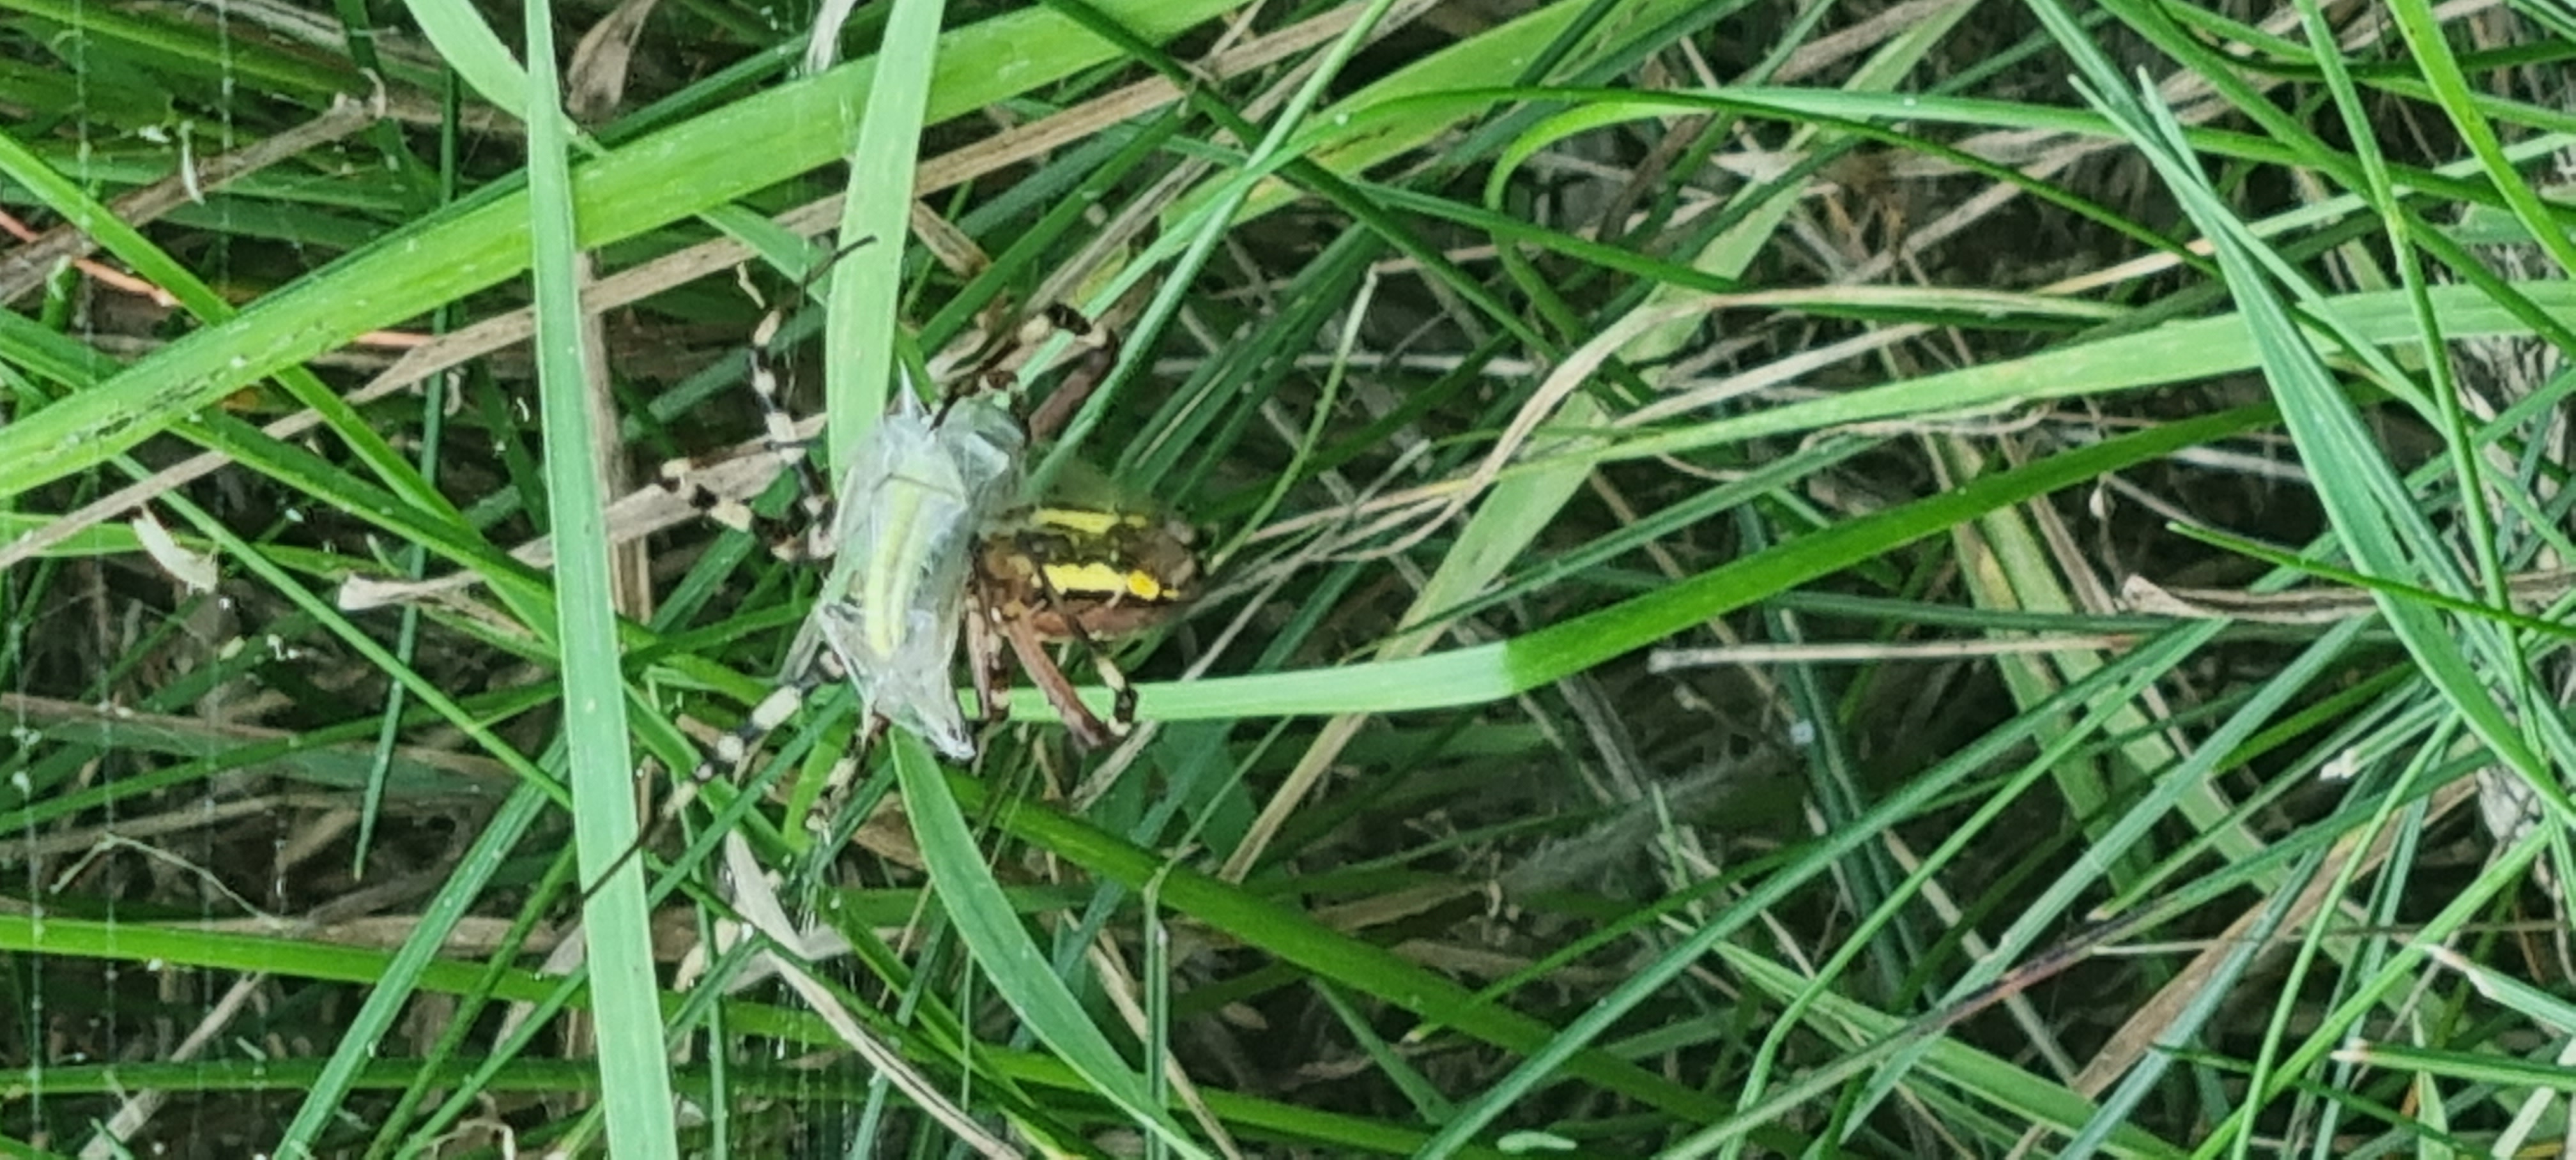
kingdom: Animalia
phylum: Arthropoda
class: Arachnida
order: Araneae
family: Araneidae
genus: Argiope
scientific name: Argiope bruennichi
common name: Hvepseedderkop
